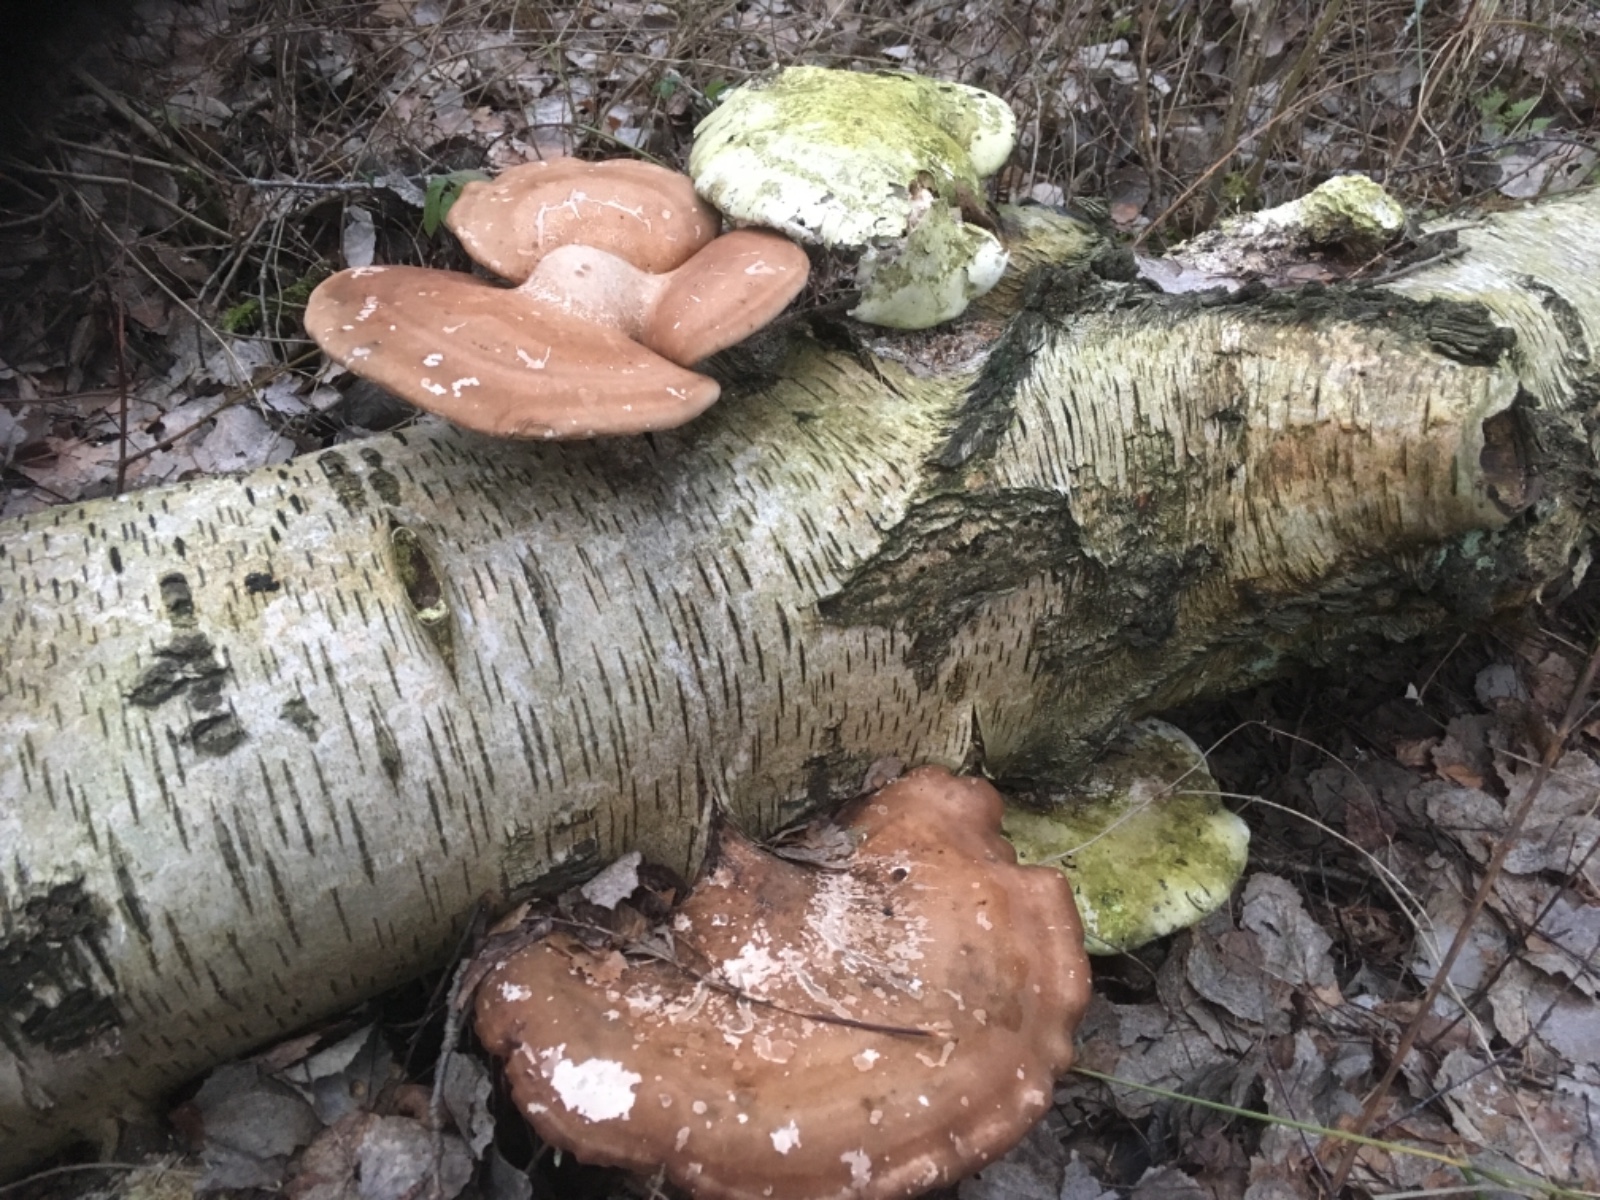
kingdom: Fungi
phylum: Basidiomycota
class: Agaricomycetes
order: Polyporales
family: Fomitopsidaceae
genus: Fomitopsis
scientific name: Fomitopsis betulina
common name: birkeporesvamp
